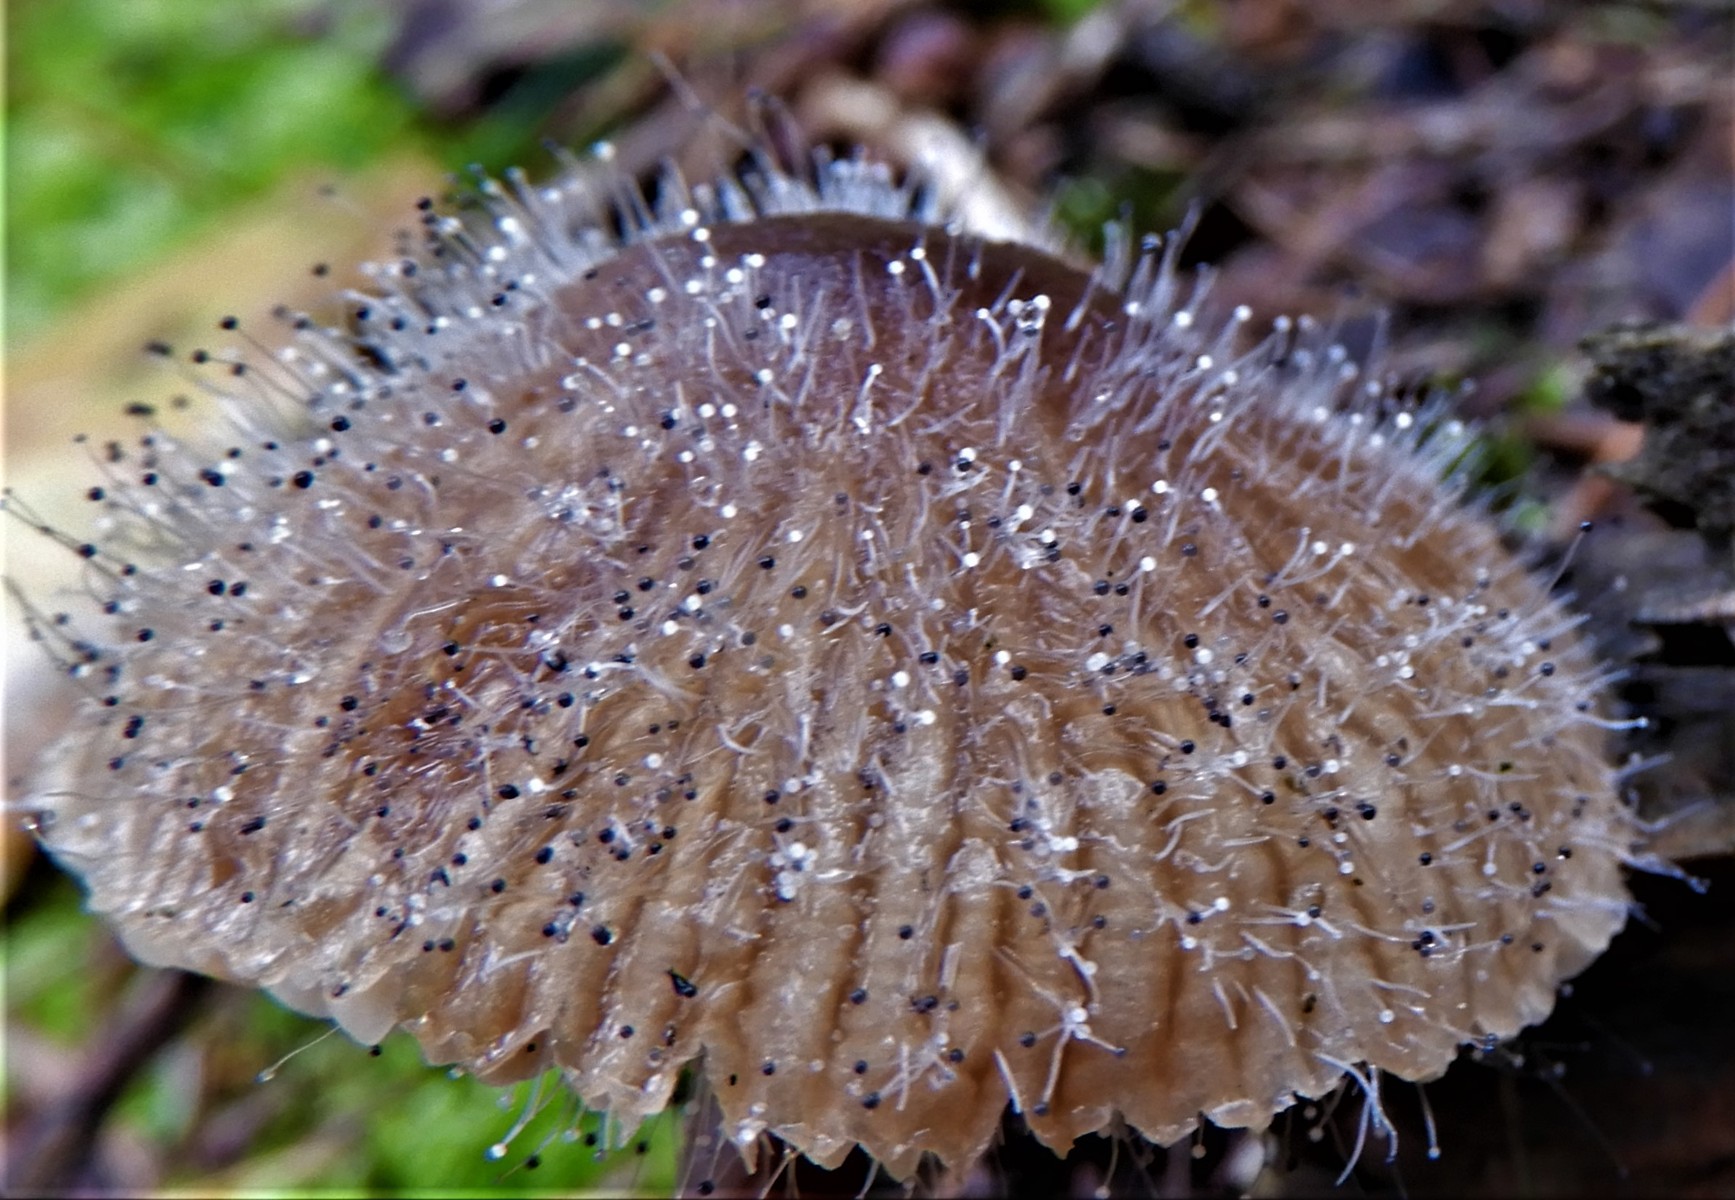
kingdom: Fungi
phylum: Mucoromycota
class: Mucoromycetes
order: Mucorales
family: Phycomycetaceae
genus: Spinellus
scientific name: Spinellus fusiger
